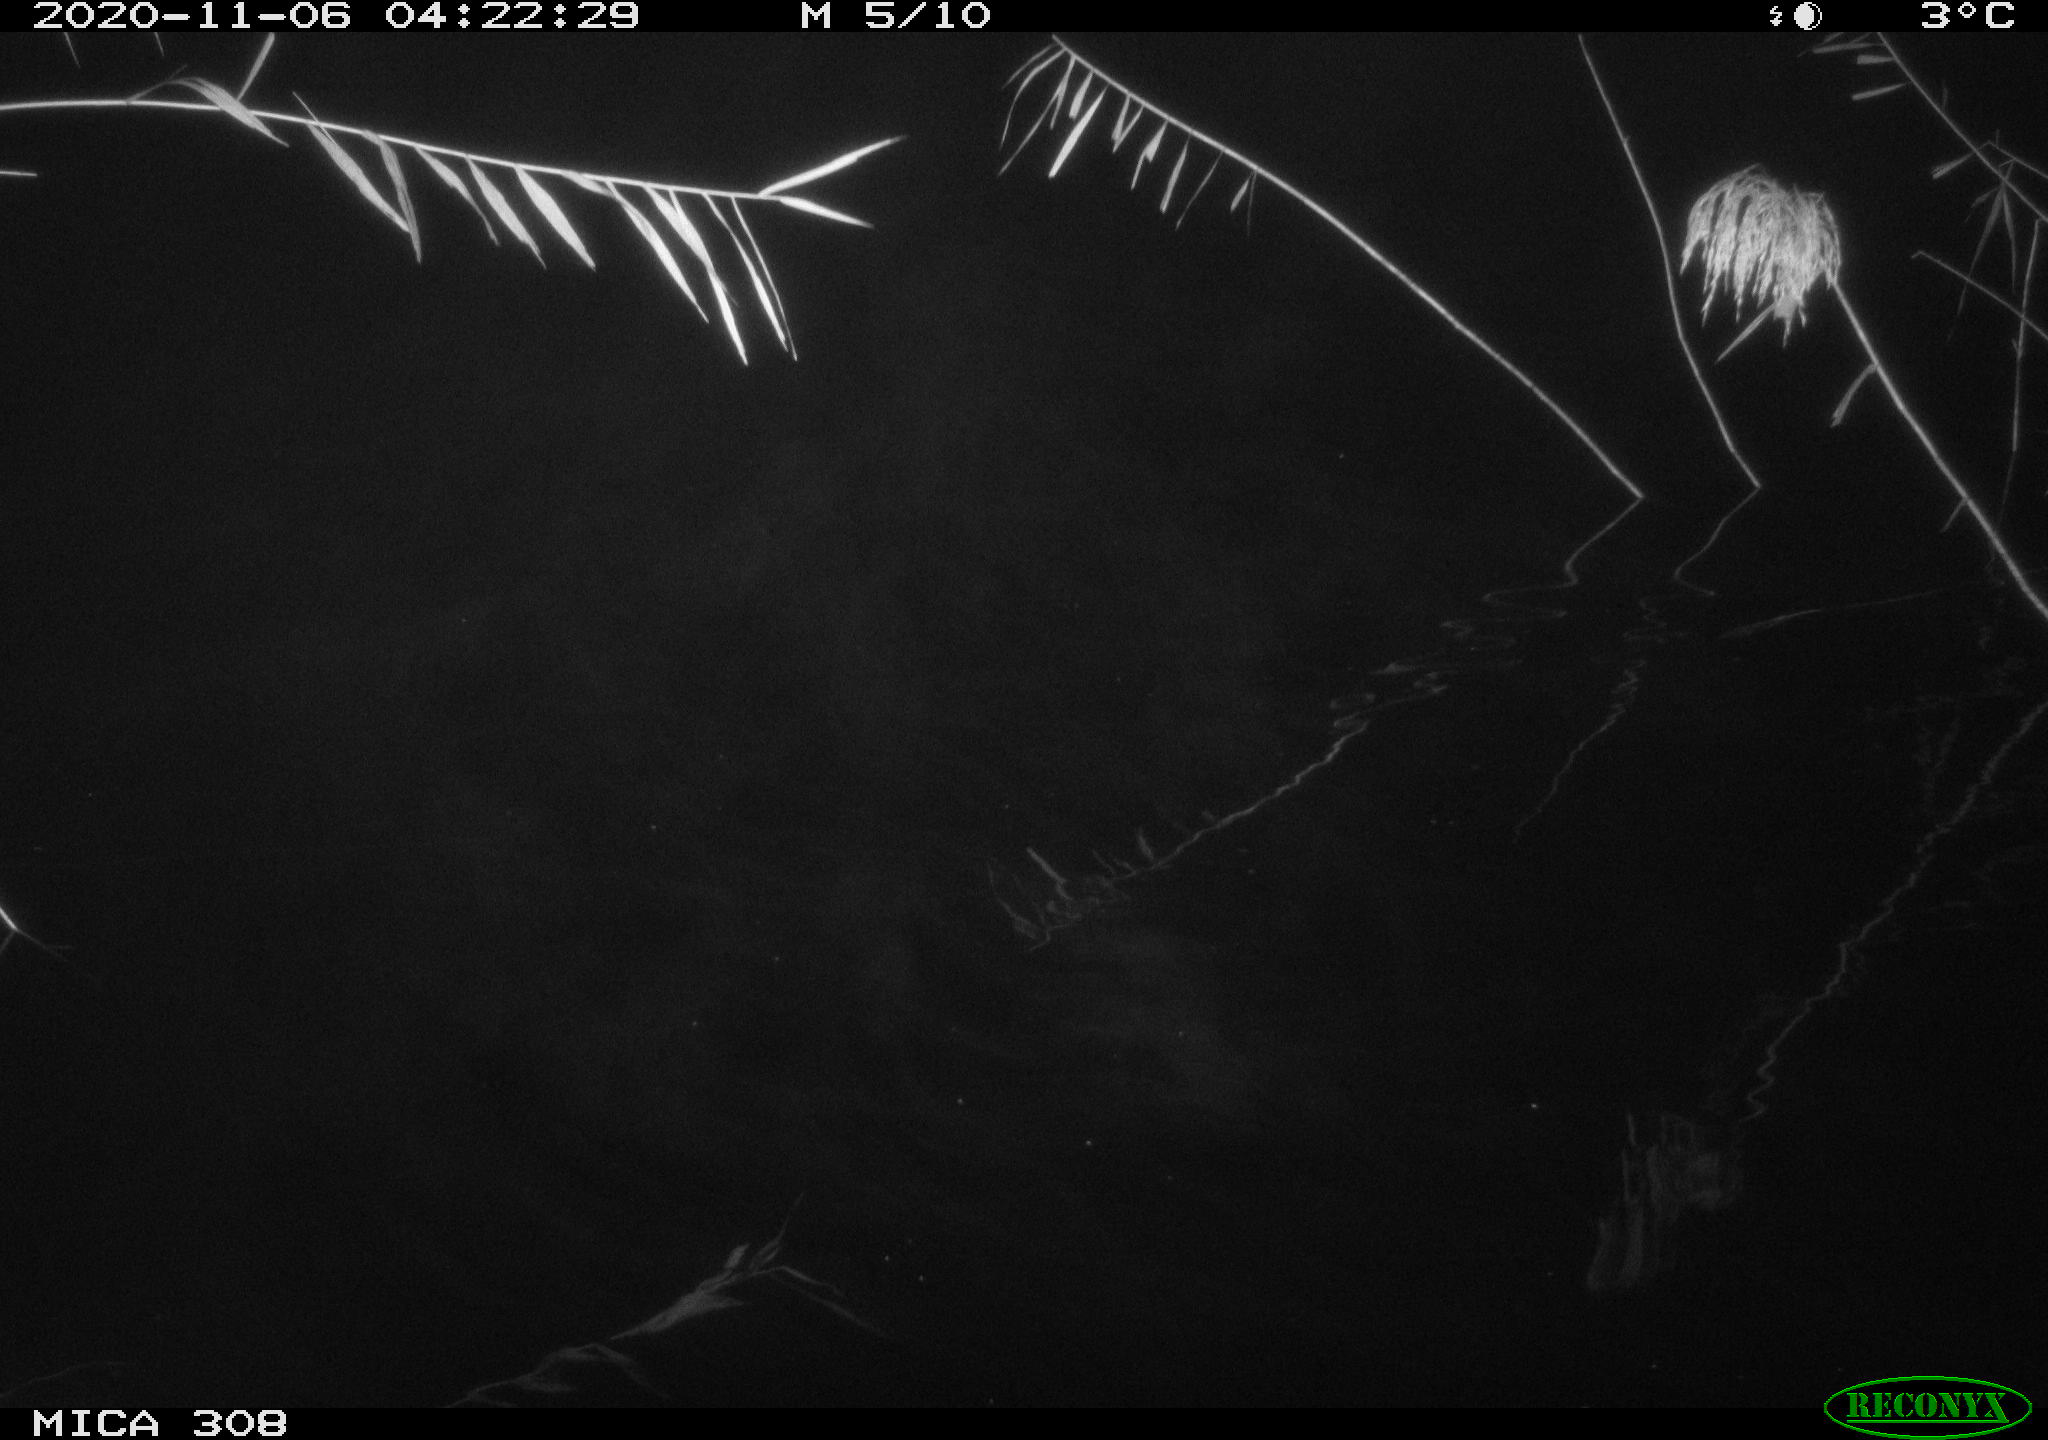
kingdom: Animalia
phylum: Chordata
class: Mammalia
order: Rodentia
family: Muridae
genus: Rattus
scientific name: Rattus norvegicus
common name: Brown rat
